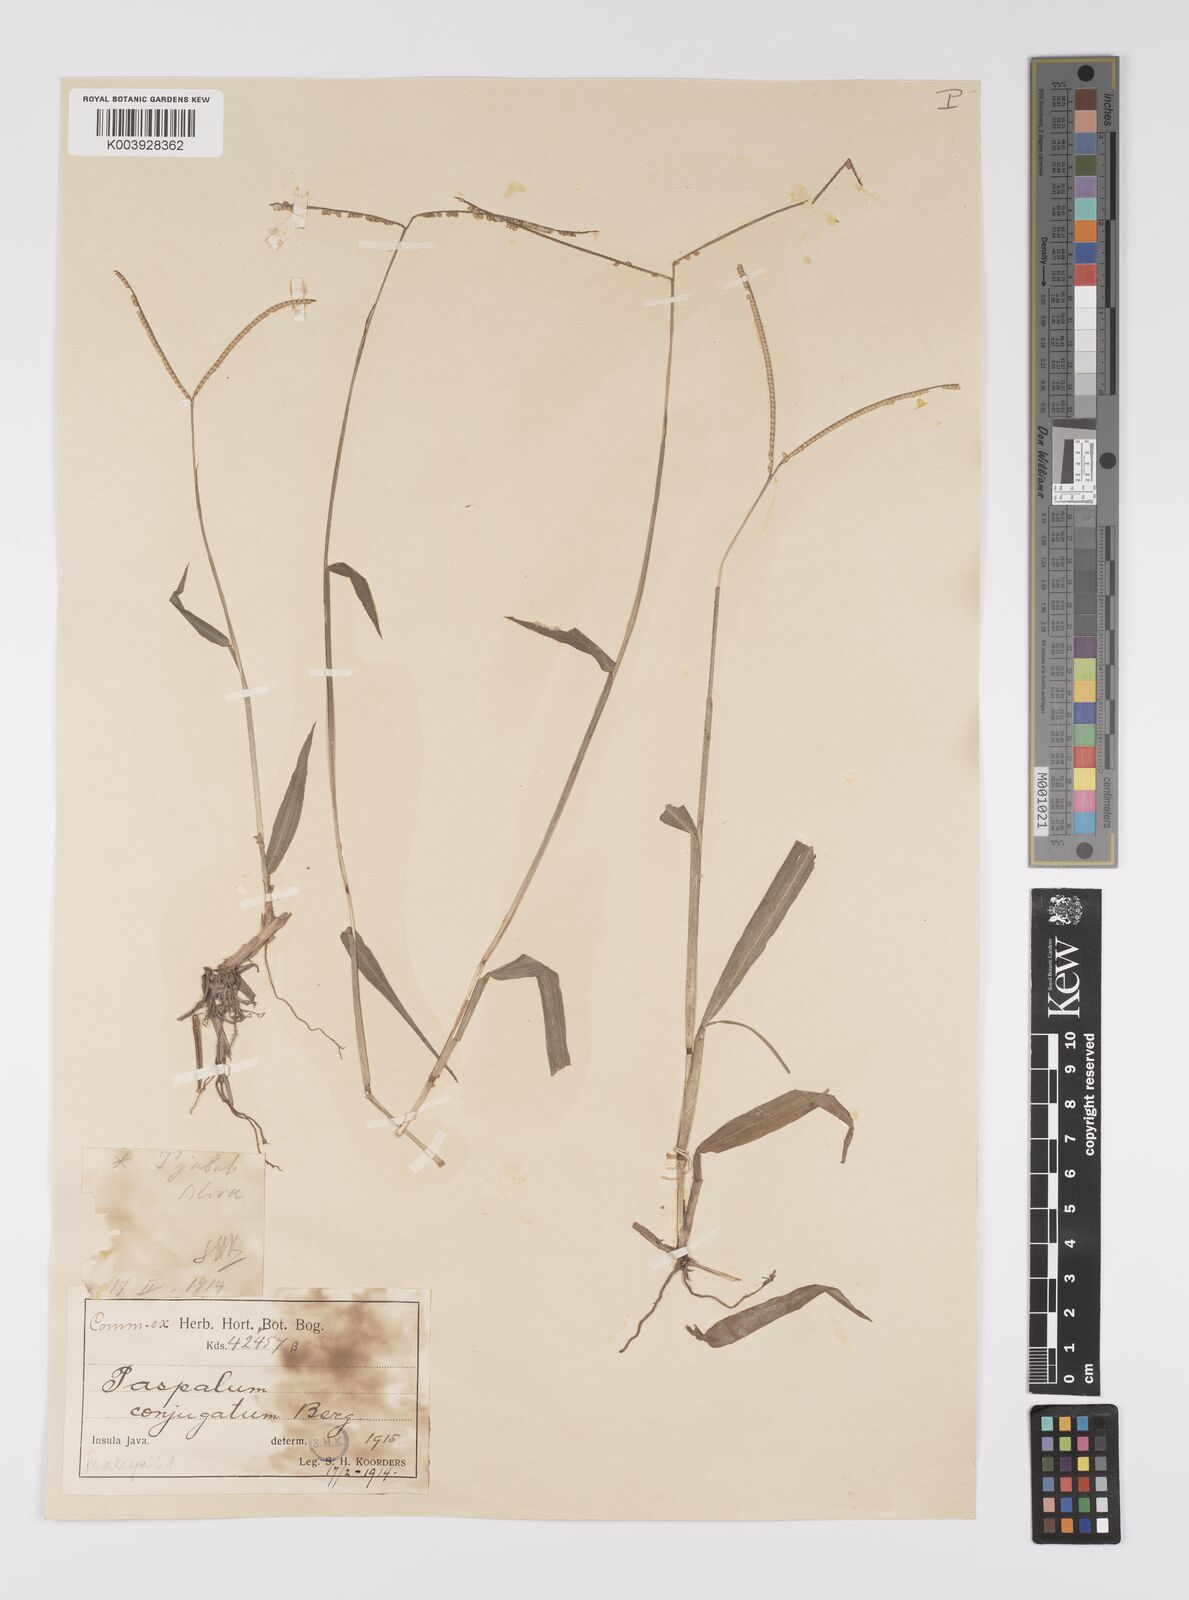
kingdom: Plantae
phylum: Tracheophyta
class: Liliopsida
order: Poales
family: Poaceae
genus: Paspalum
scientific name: Paspalum conjugatum
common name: Hilograss
